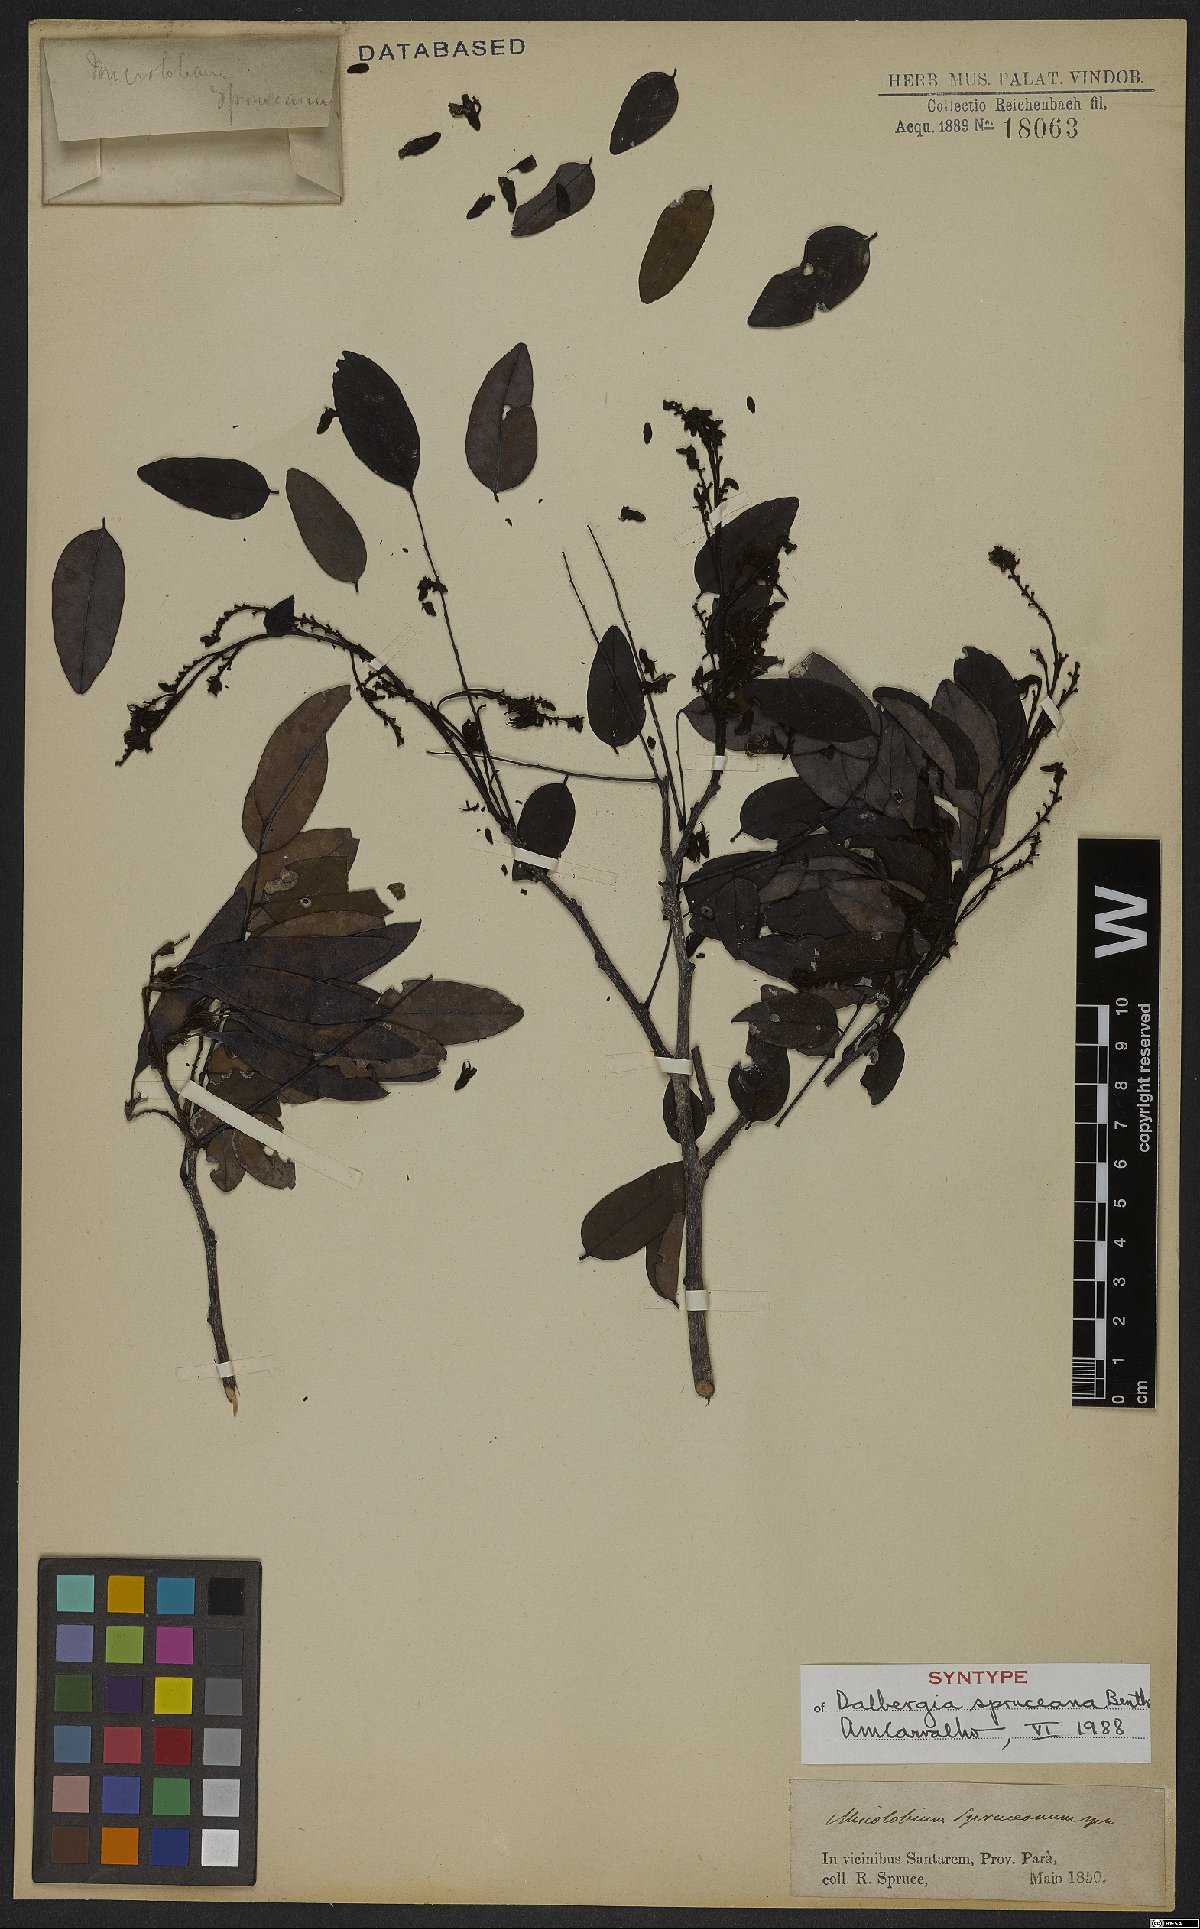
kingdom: Plantae
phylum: Tracheophyta
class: Magnoliopsida
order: Fabales
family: Fabaceae
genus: Dalbergia
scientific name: Dalbergia spruceana
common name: Amazon rosewood
